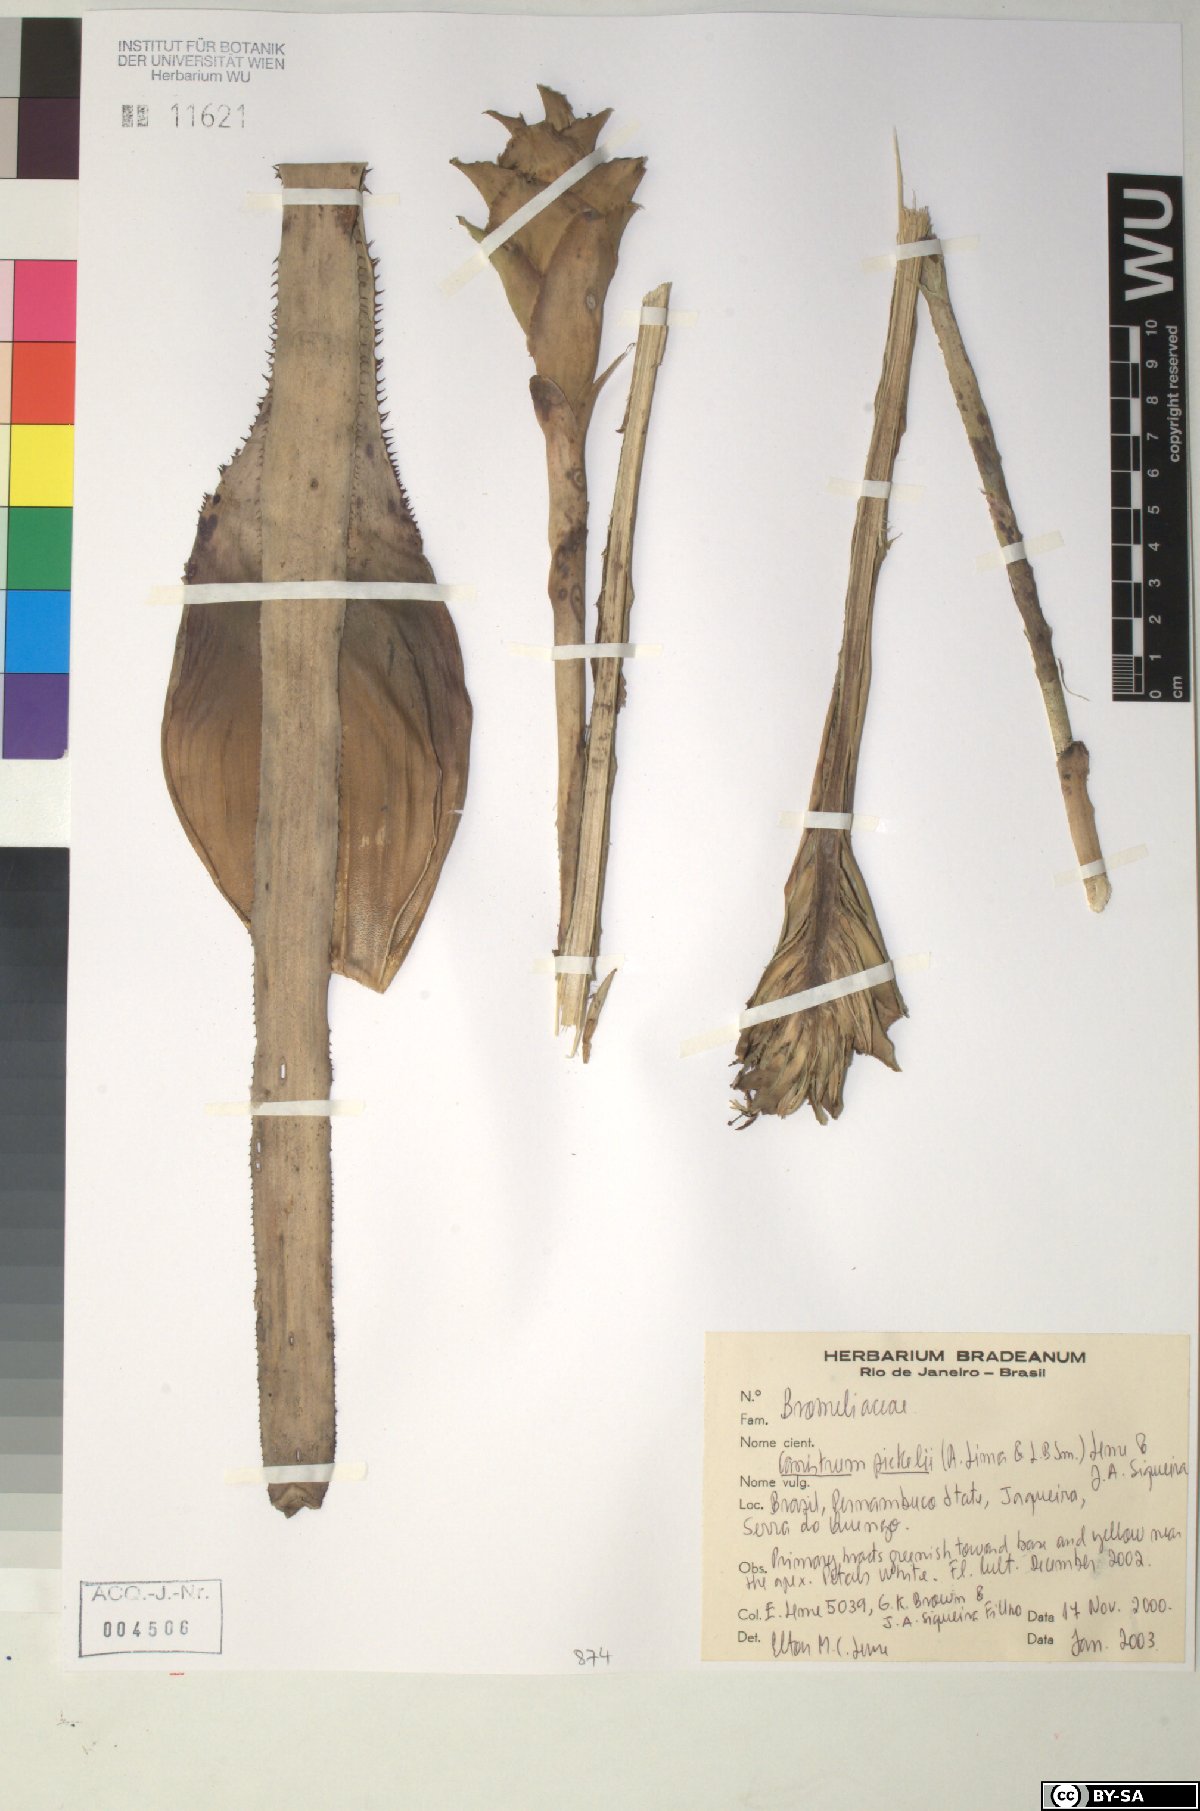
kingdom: Plantae
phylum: Tracheophyta
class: Liliopsida
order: Poales
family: Bromeliaceae
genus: Canistrum
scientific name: Canistrum pickelii
